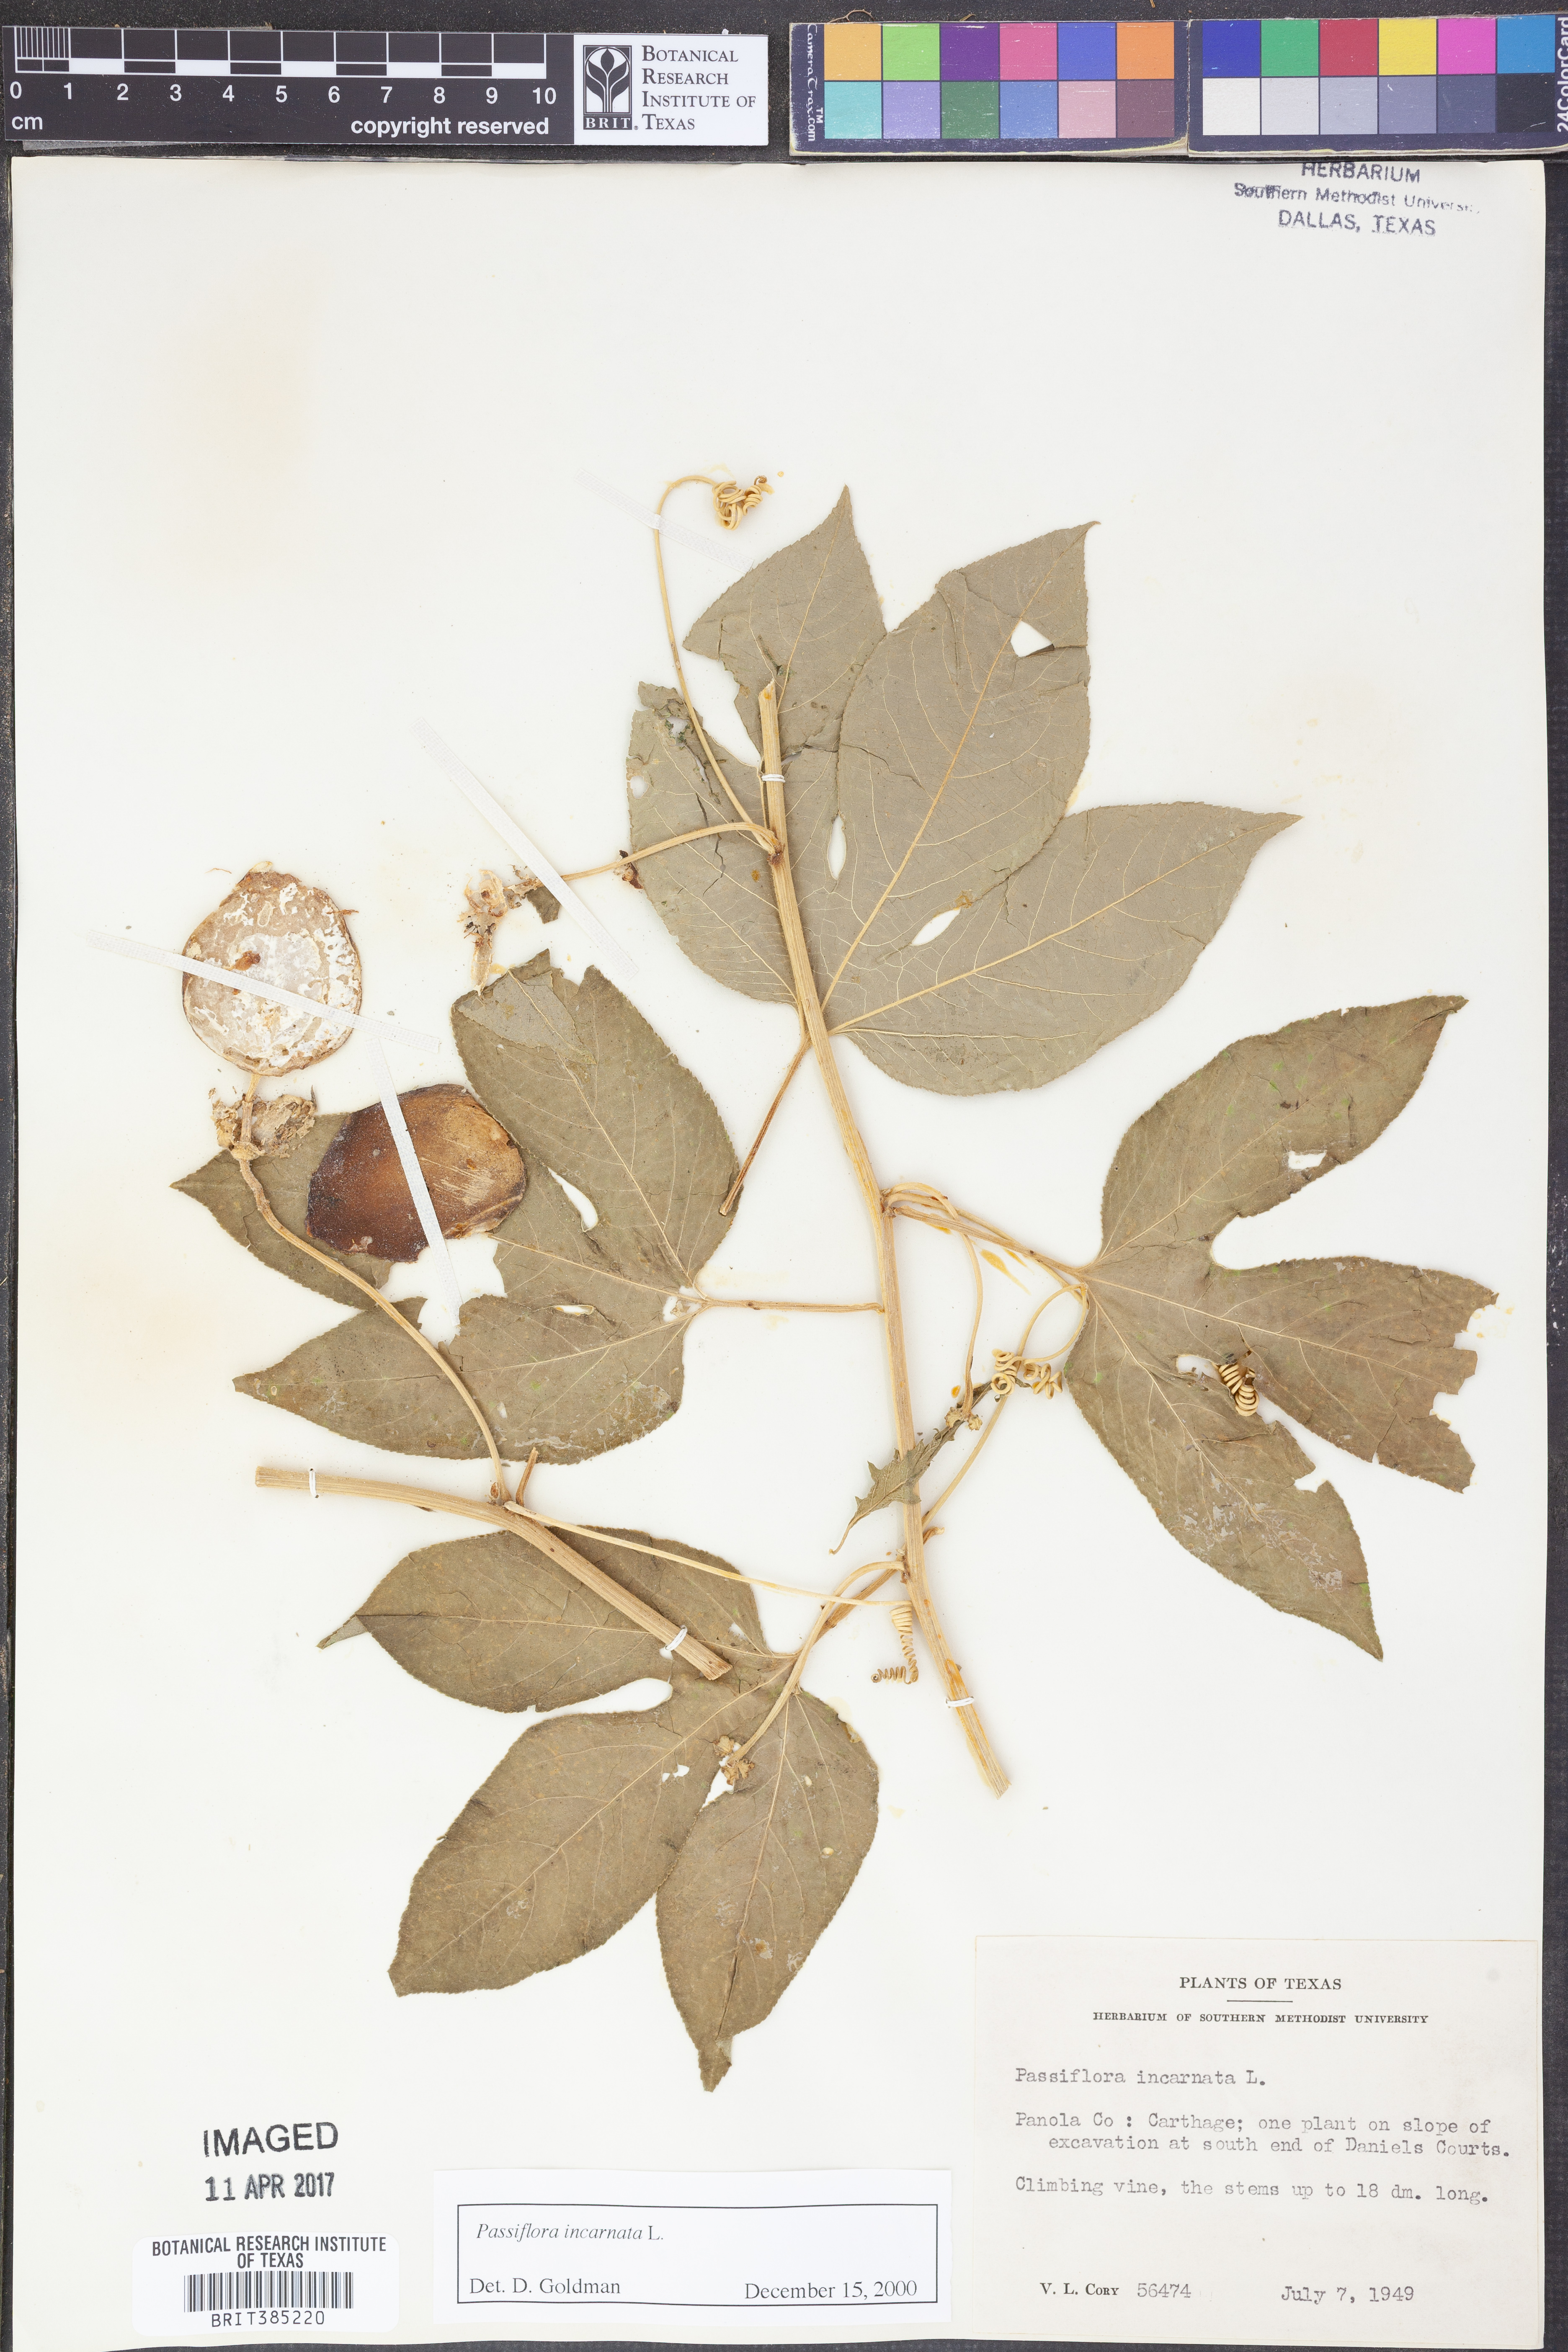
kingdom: Plantae
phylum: Tracheophyta
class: Magnoliopsida
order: Malpighiales
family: Passifloraceae
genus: Passiflora
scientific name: Passiflora incarnata
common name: Apricot-vine
